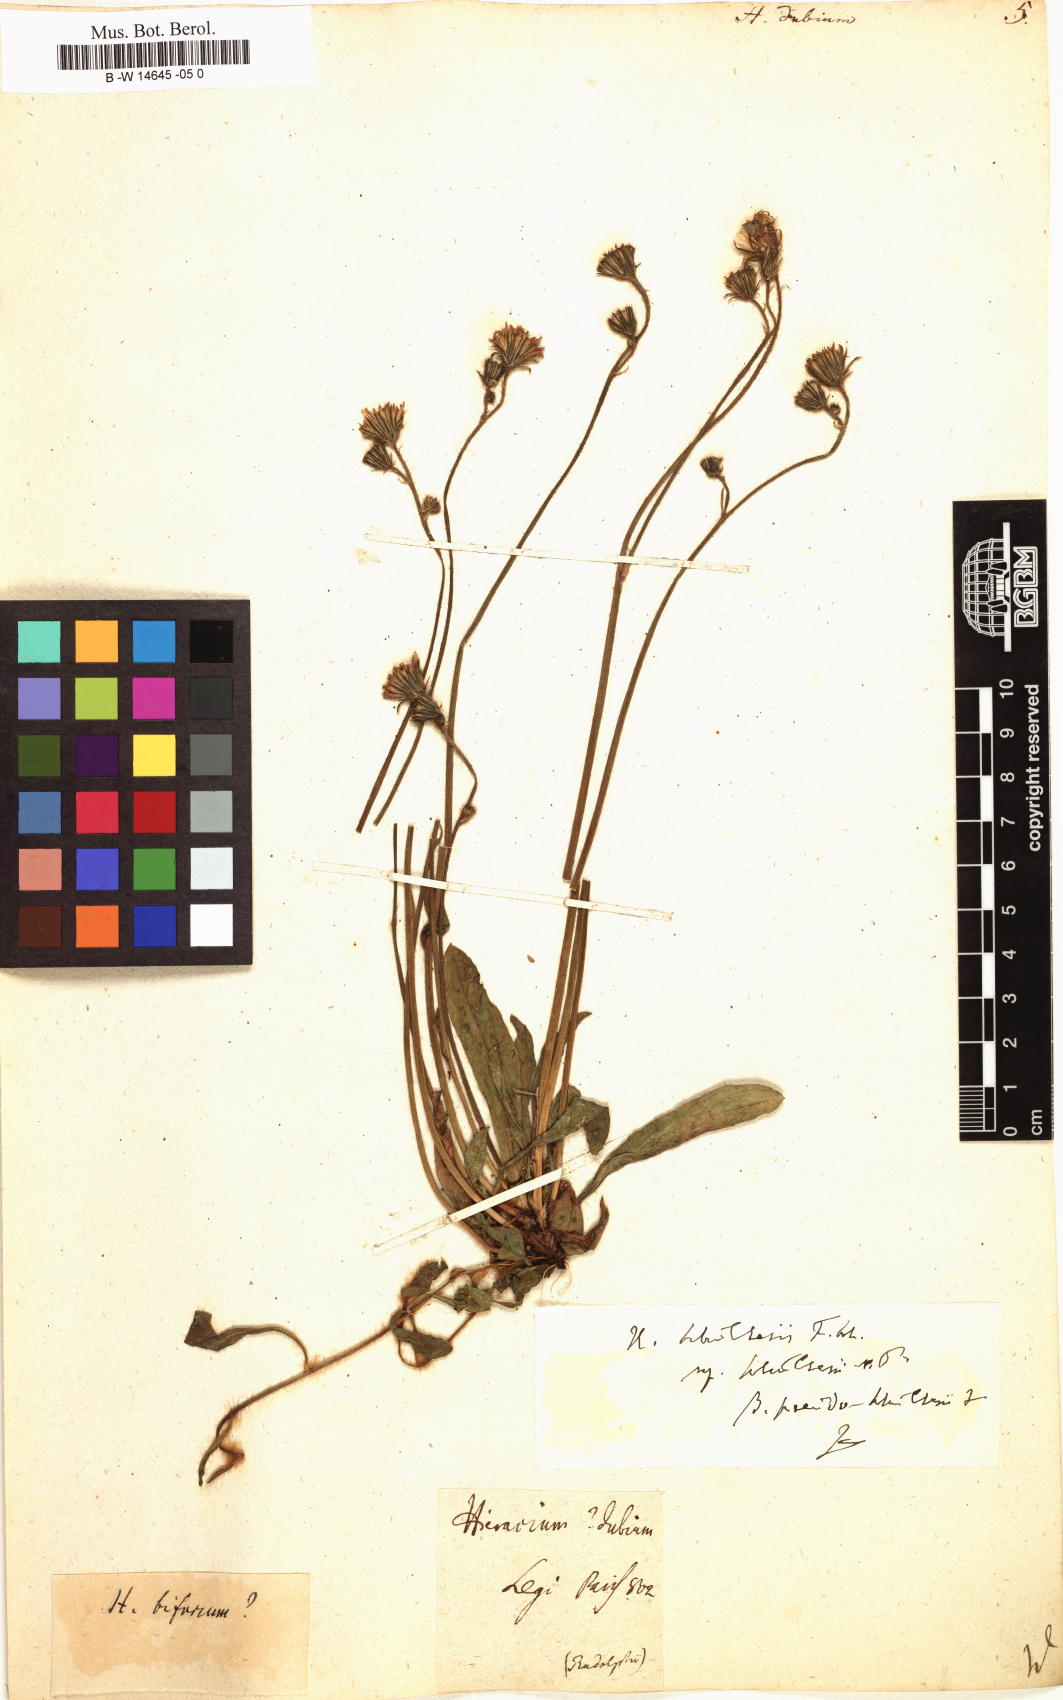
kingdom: Plantae
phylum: Tracheophyta
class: Magnoliopsida
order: Asterales
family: Asteraceae
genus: Hieracium
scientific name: Hieracium dubium
